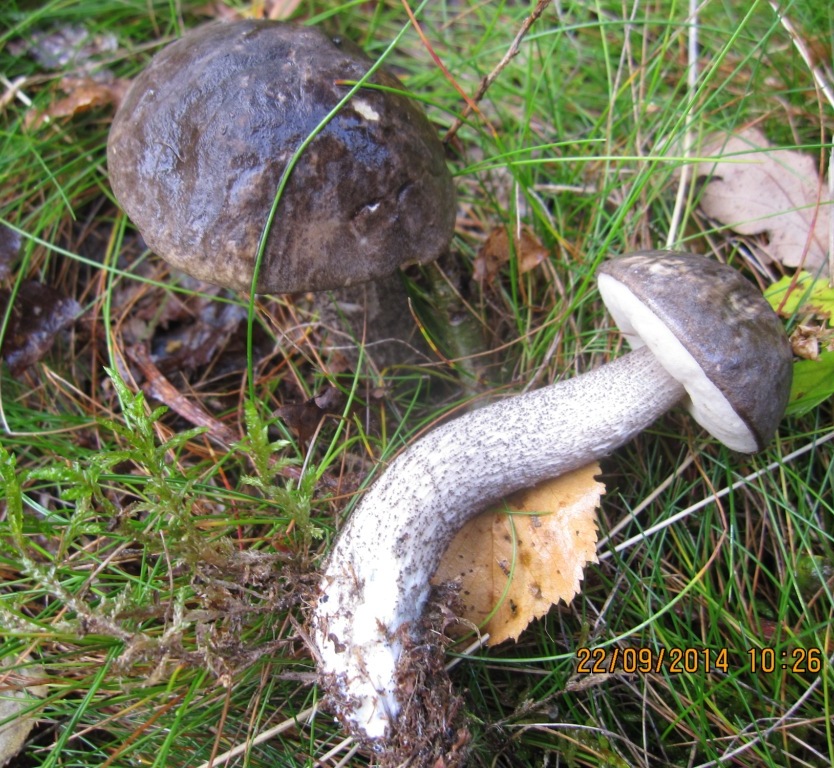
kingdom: Fungi
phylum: Basidiomycota
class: Agaricomycetes
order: Boletales
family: Boletaceae
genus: Leccinum
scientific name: Leccinum variicolor
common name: flammet skælrørhat
